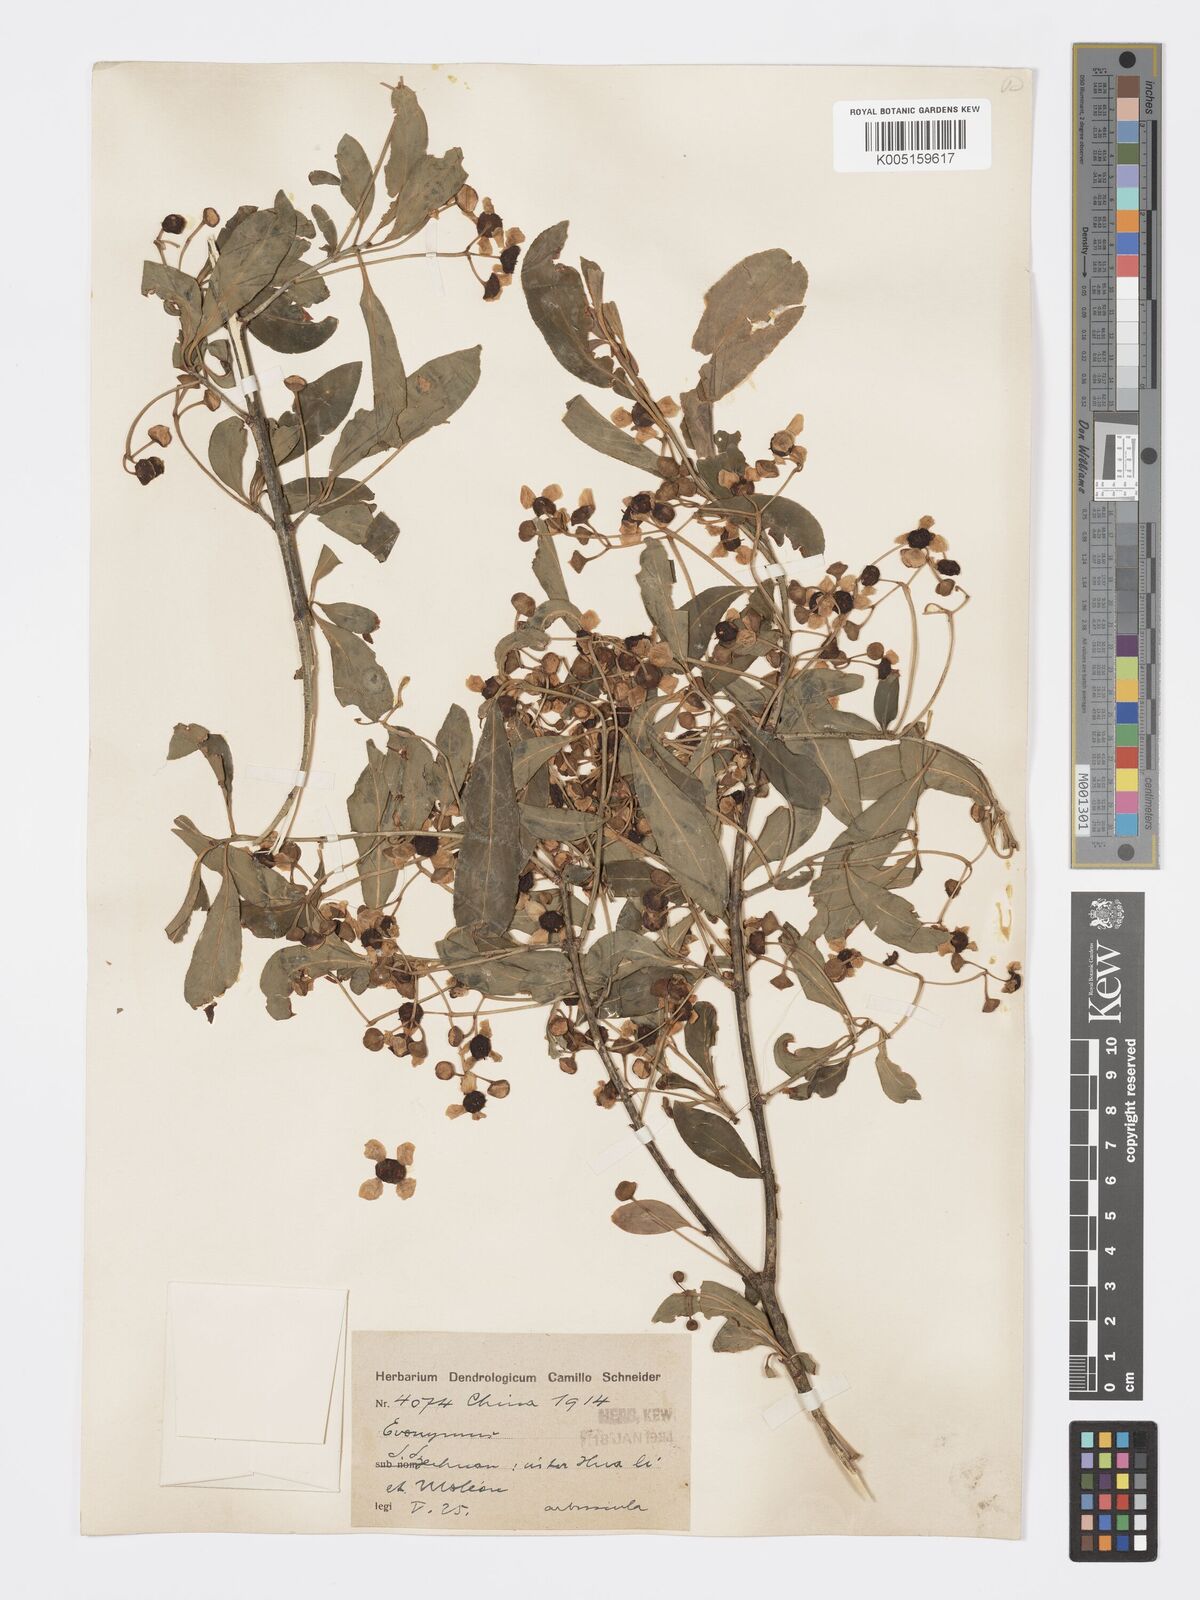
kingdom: Plantae
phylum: Tracheophyta
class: Magnoliopsida
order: Celastrales
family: Celastraceae
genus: Euonymus
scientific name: Euonymus grandiflorus
